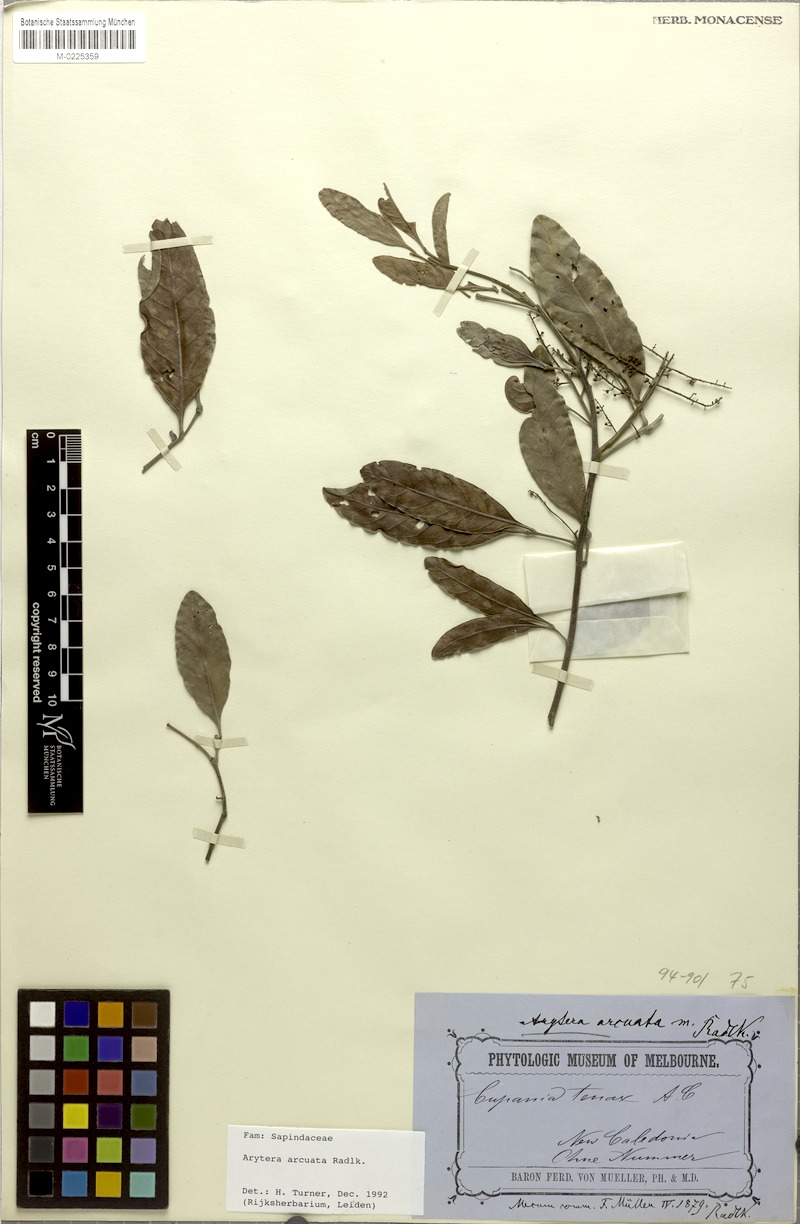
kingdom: Plantae
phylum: Tracheophyta
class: Magnoliopsida
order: Sapindales
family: Sapindaceae
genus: Lepidocupania
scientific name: Lepidocupania arcuata
